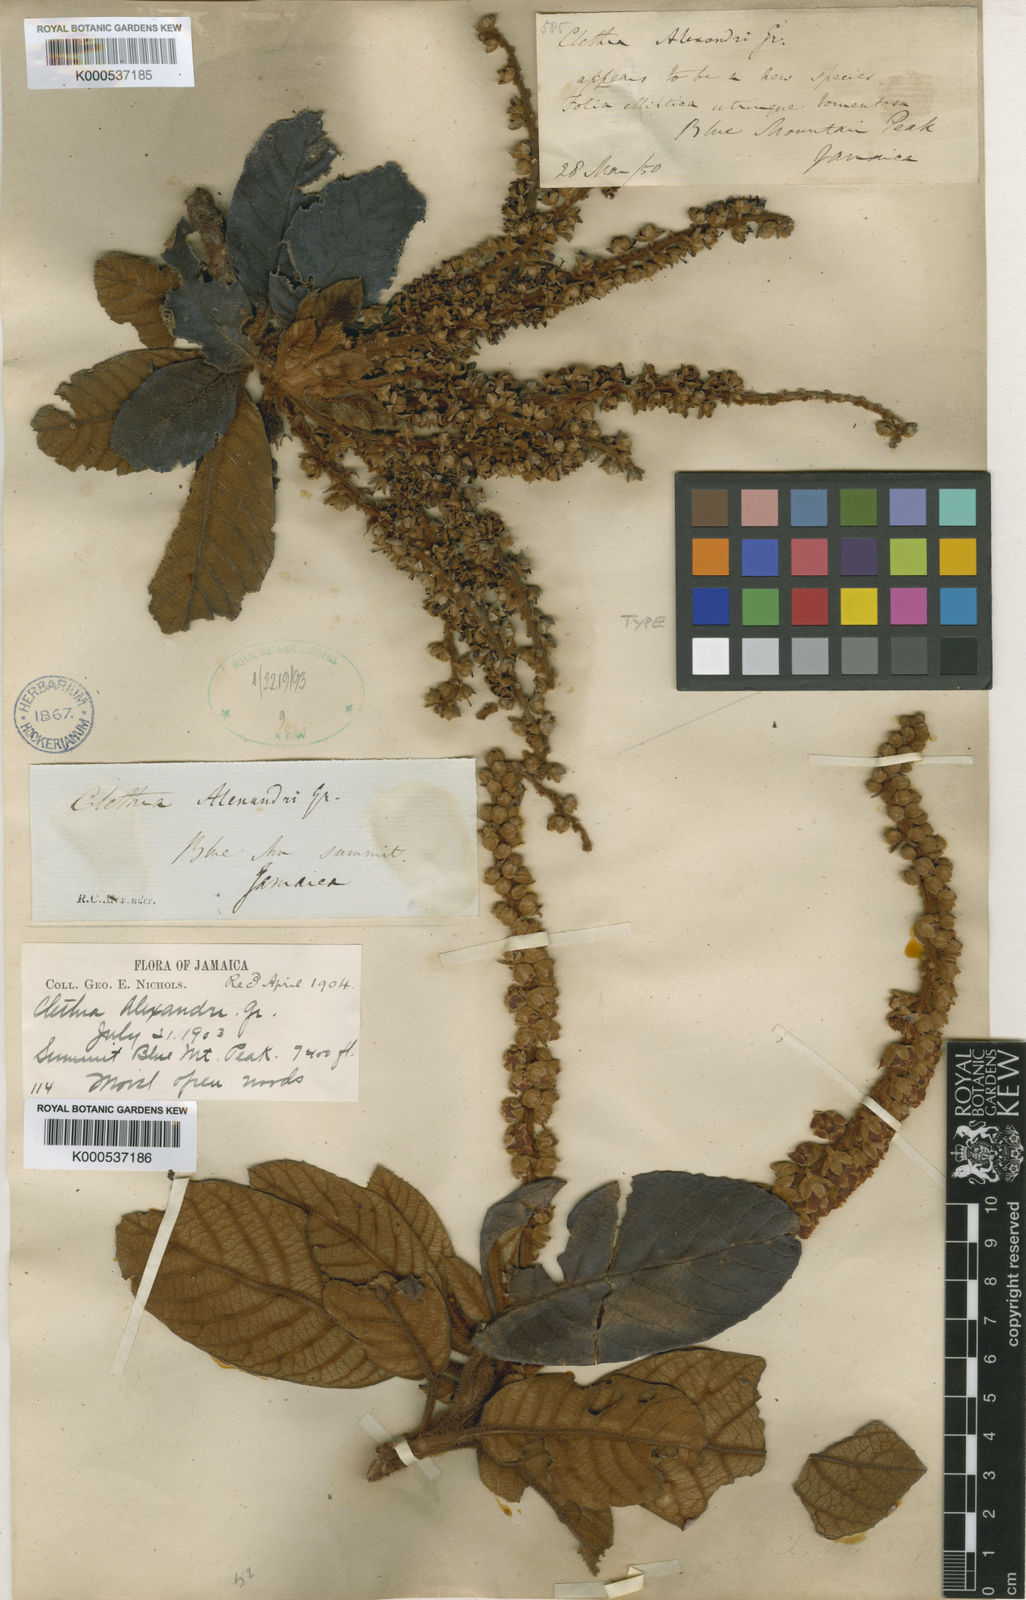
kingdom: Plantae
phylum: Tracheophyta
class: Magnoliopsida
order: Ericales
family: Clethraceae
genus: Clethra
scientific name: Clethra alexandri
